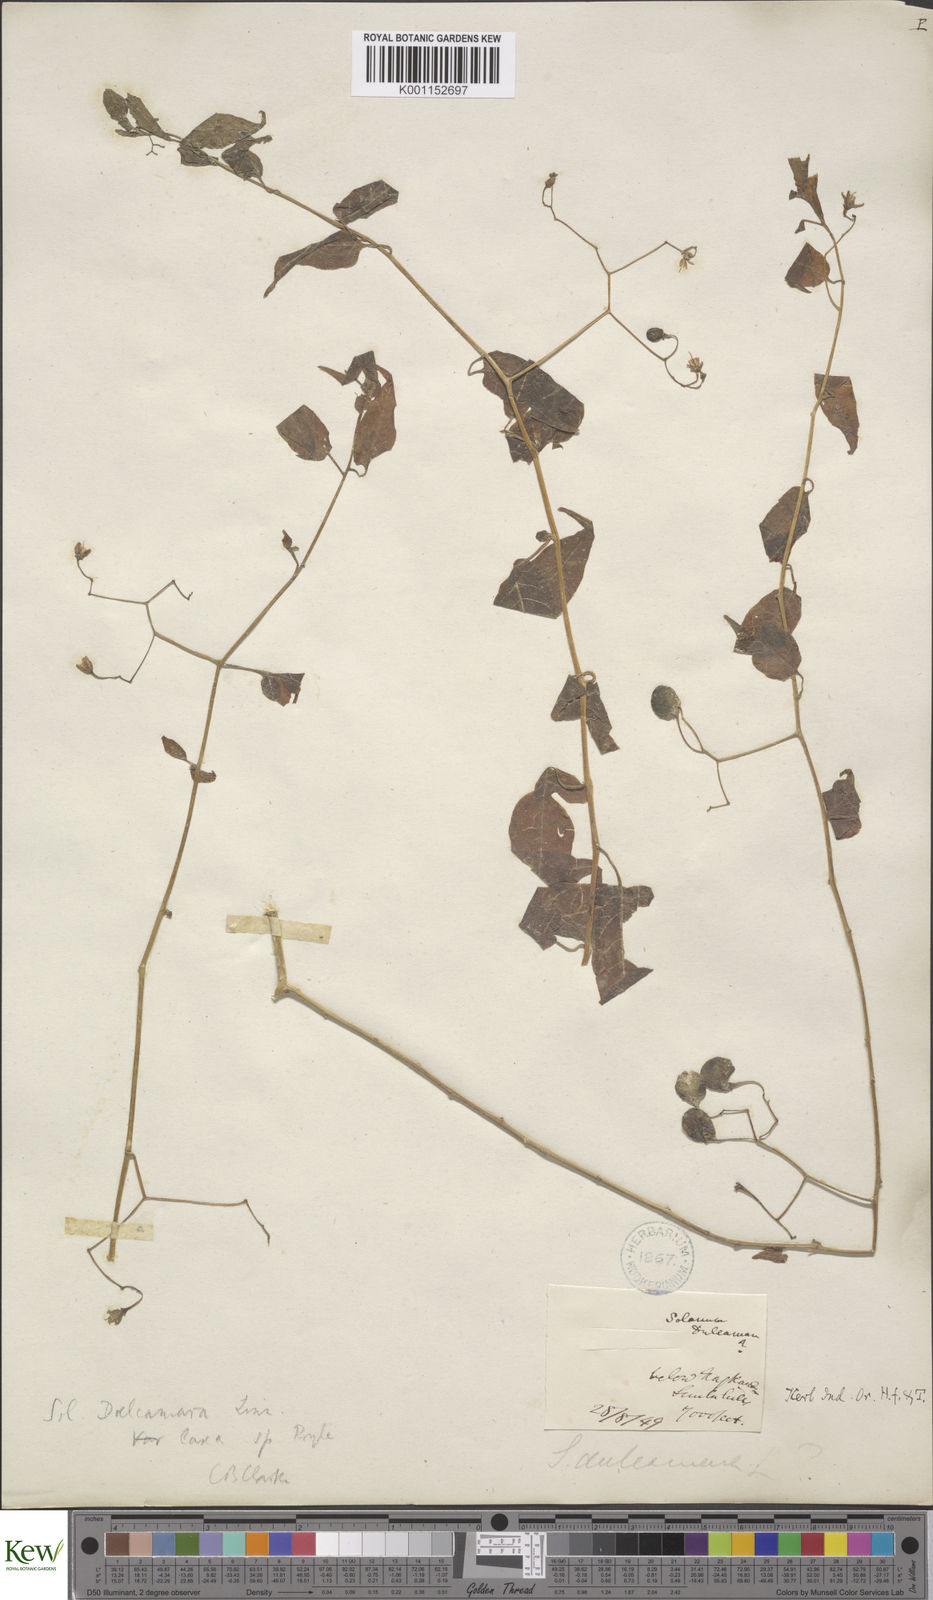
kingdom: Plantae
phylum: Tracheophyta
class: Magnoliopsida
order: Solanales
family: Solanaceae
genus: Solanum
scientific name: Solanum dulcamara
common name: Climbing nightshade
